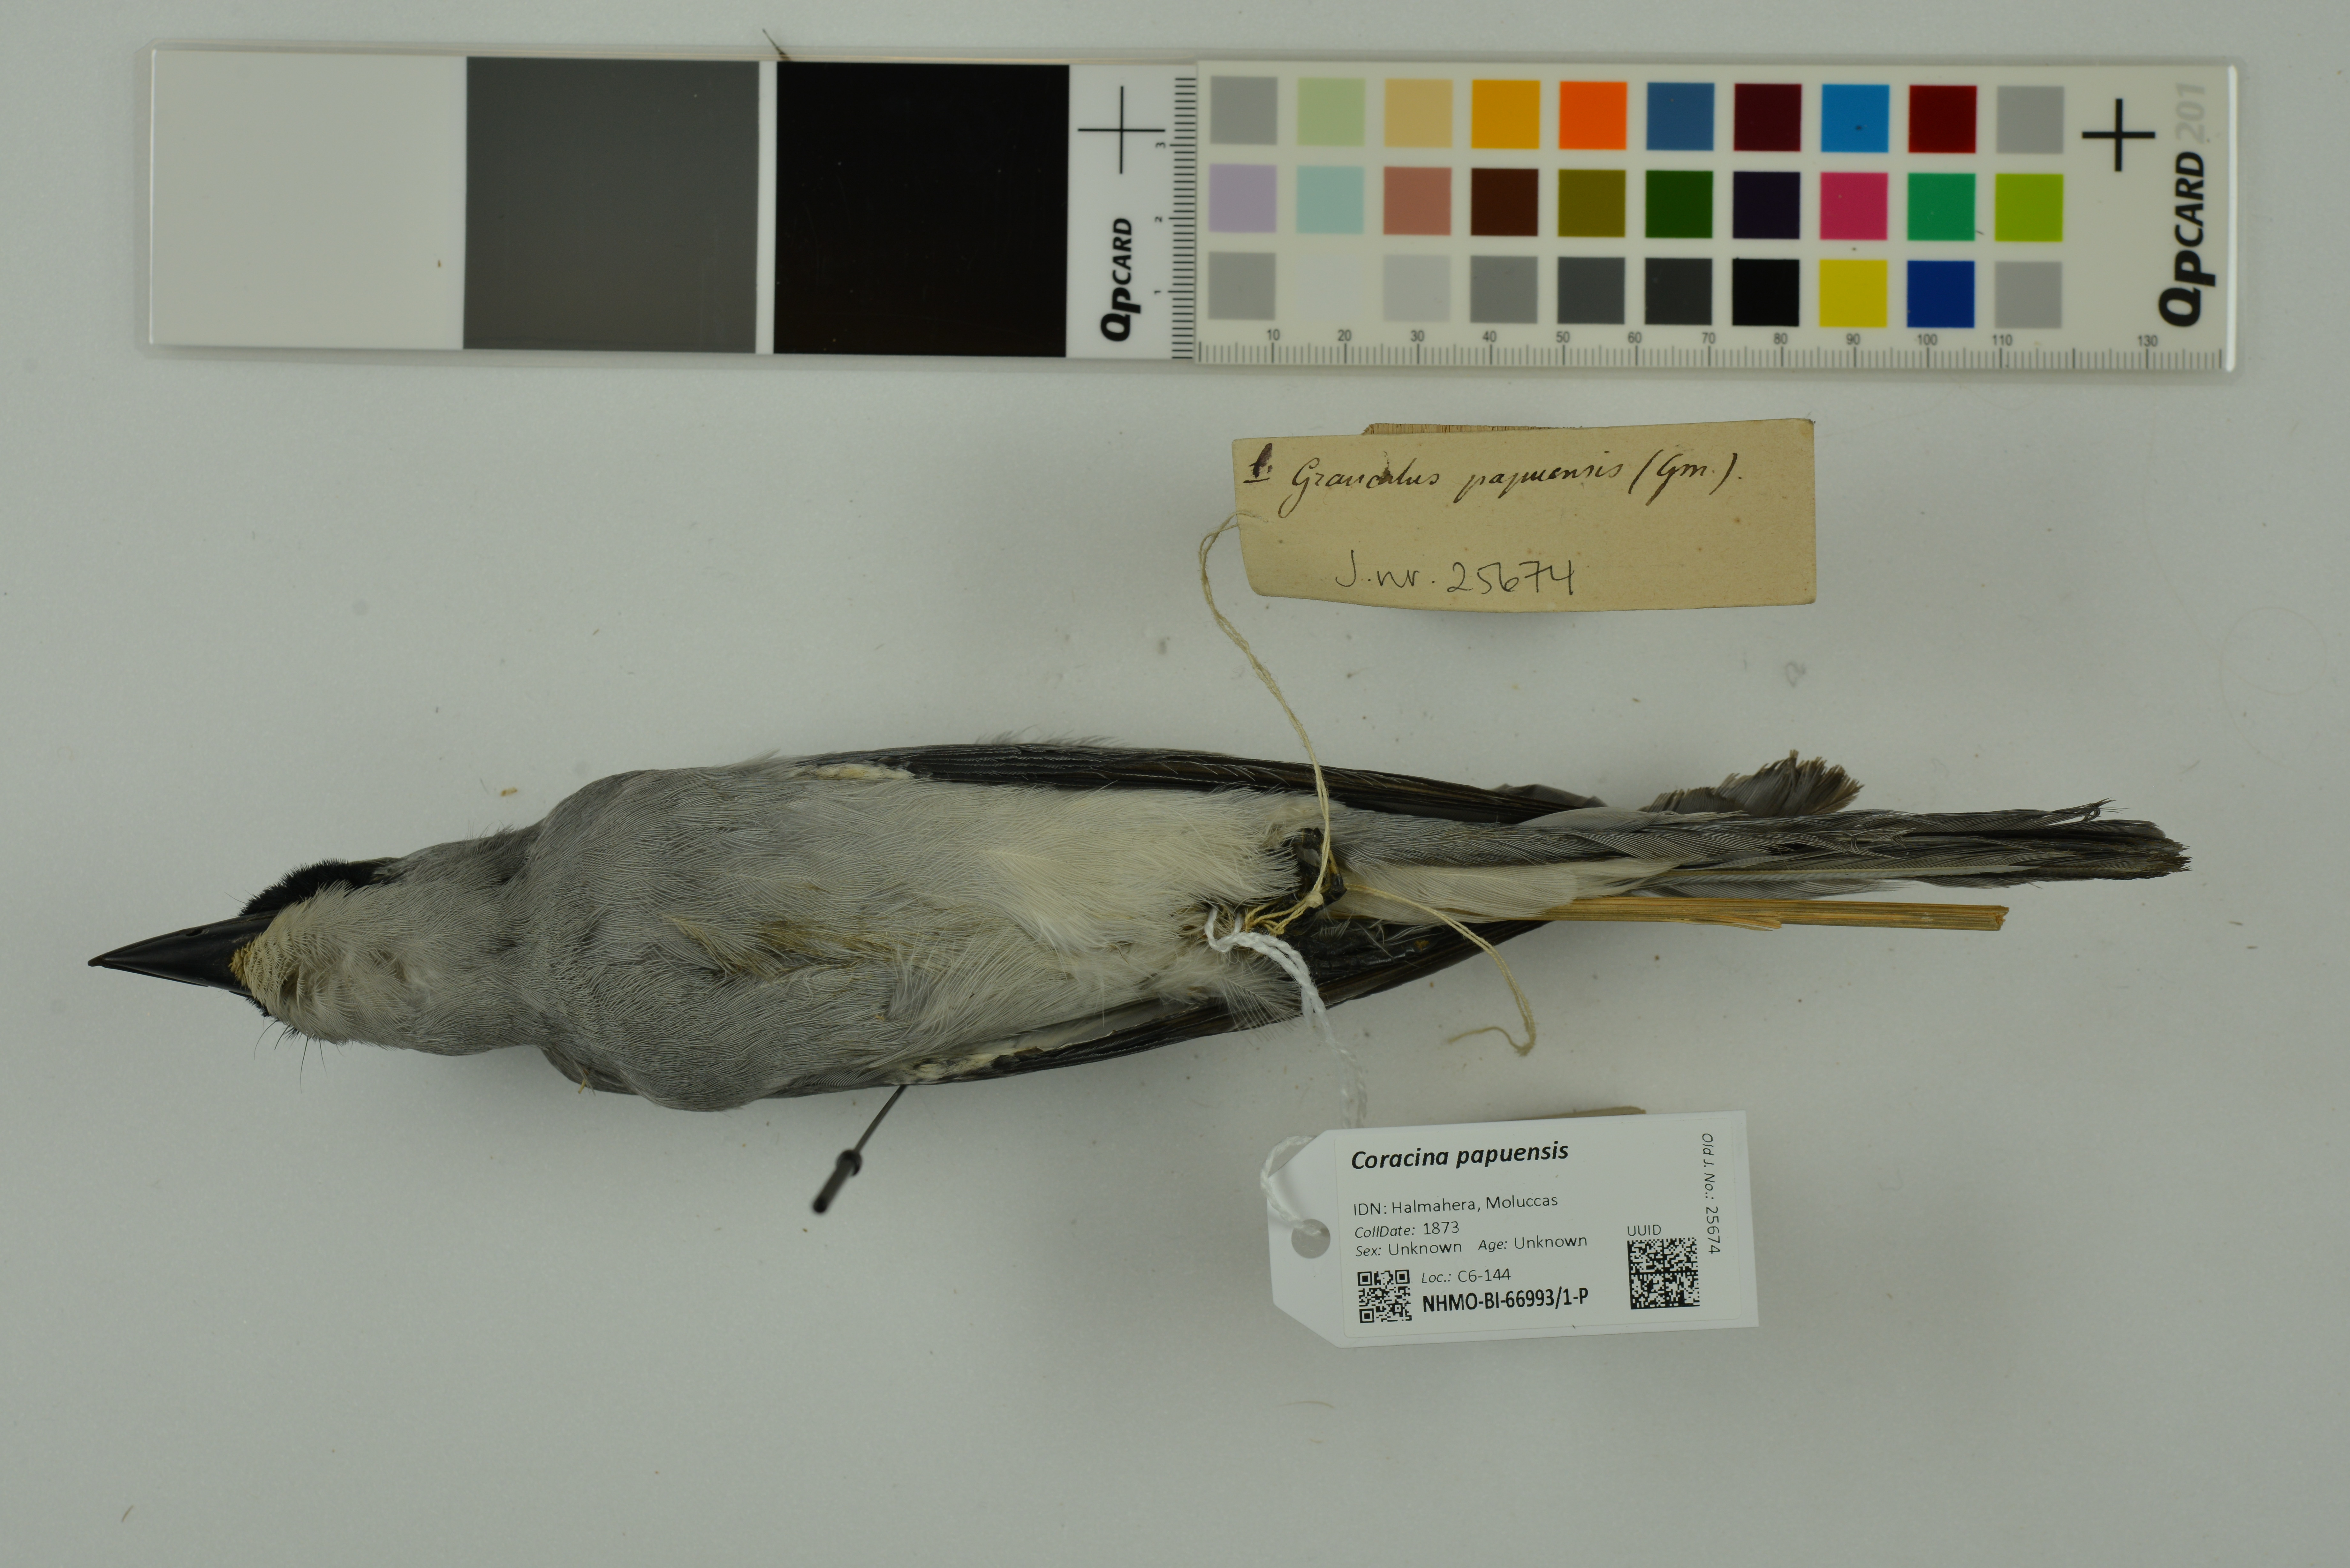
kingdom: Animalia
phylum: Chordata
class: Aves
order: Passeriformes
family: Campephagidae
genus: Coracina
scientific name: Coracina papuensis
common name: White-bellied cuckooshrike
